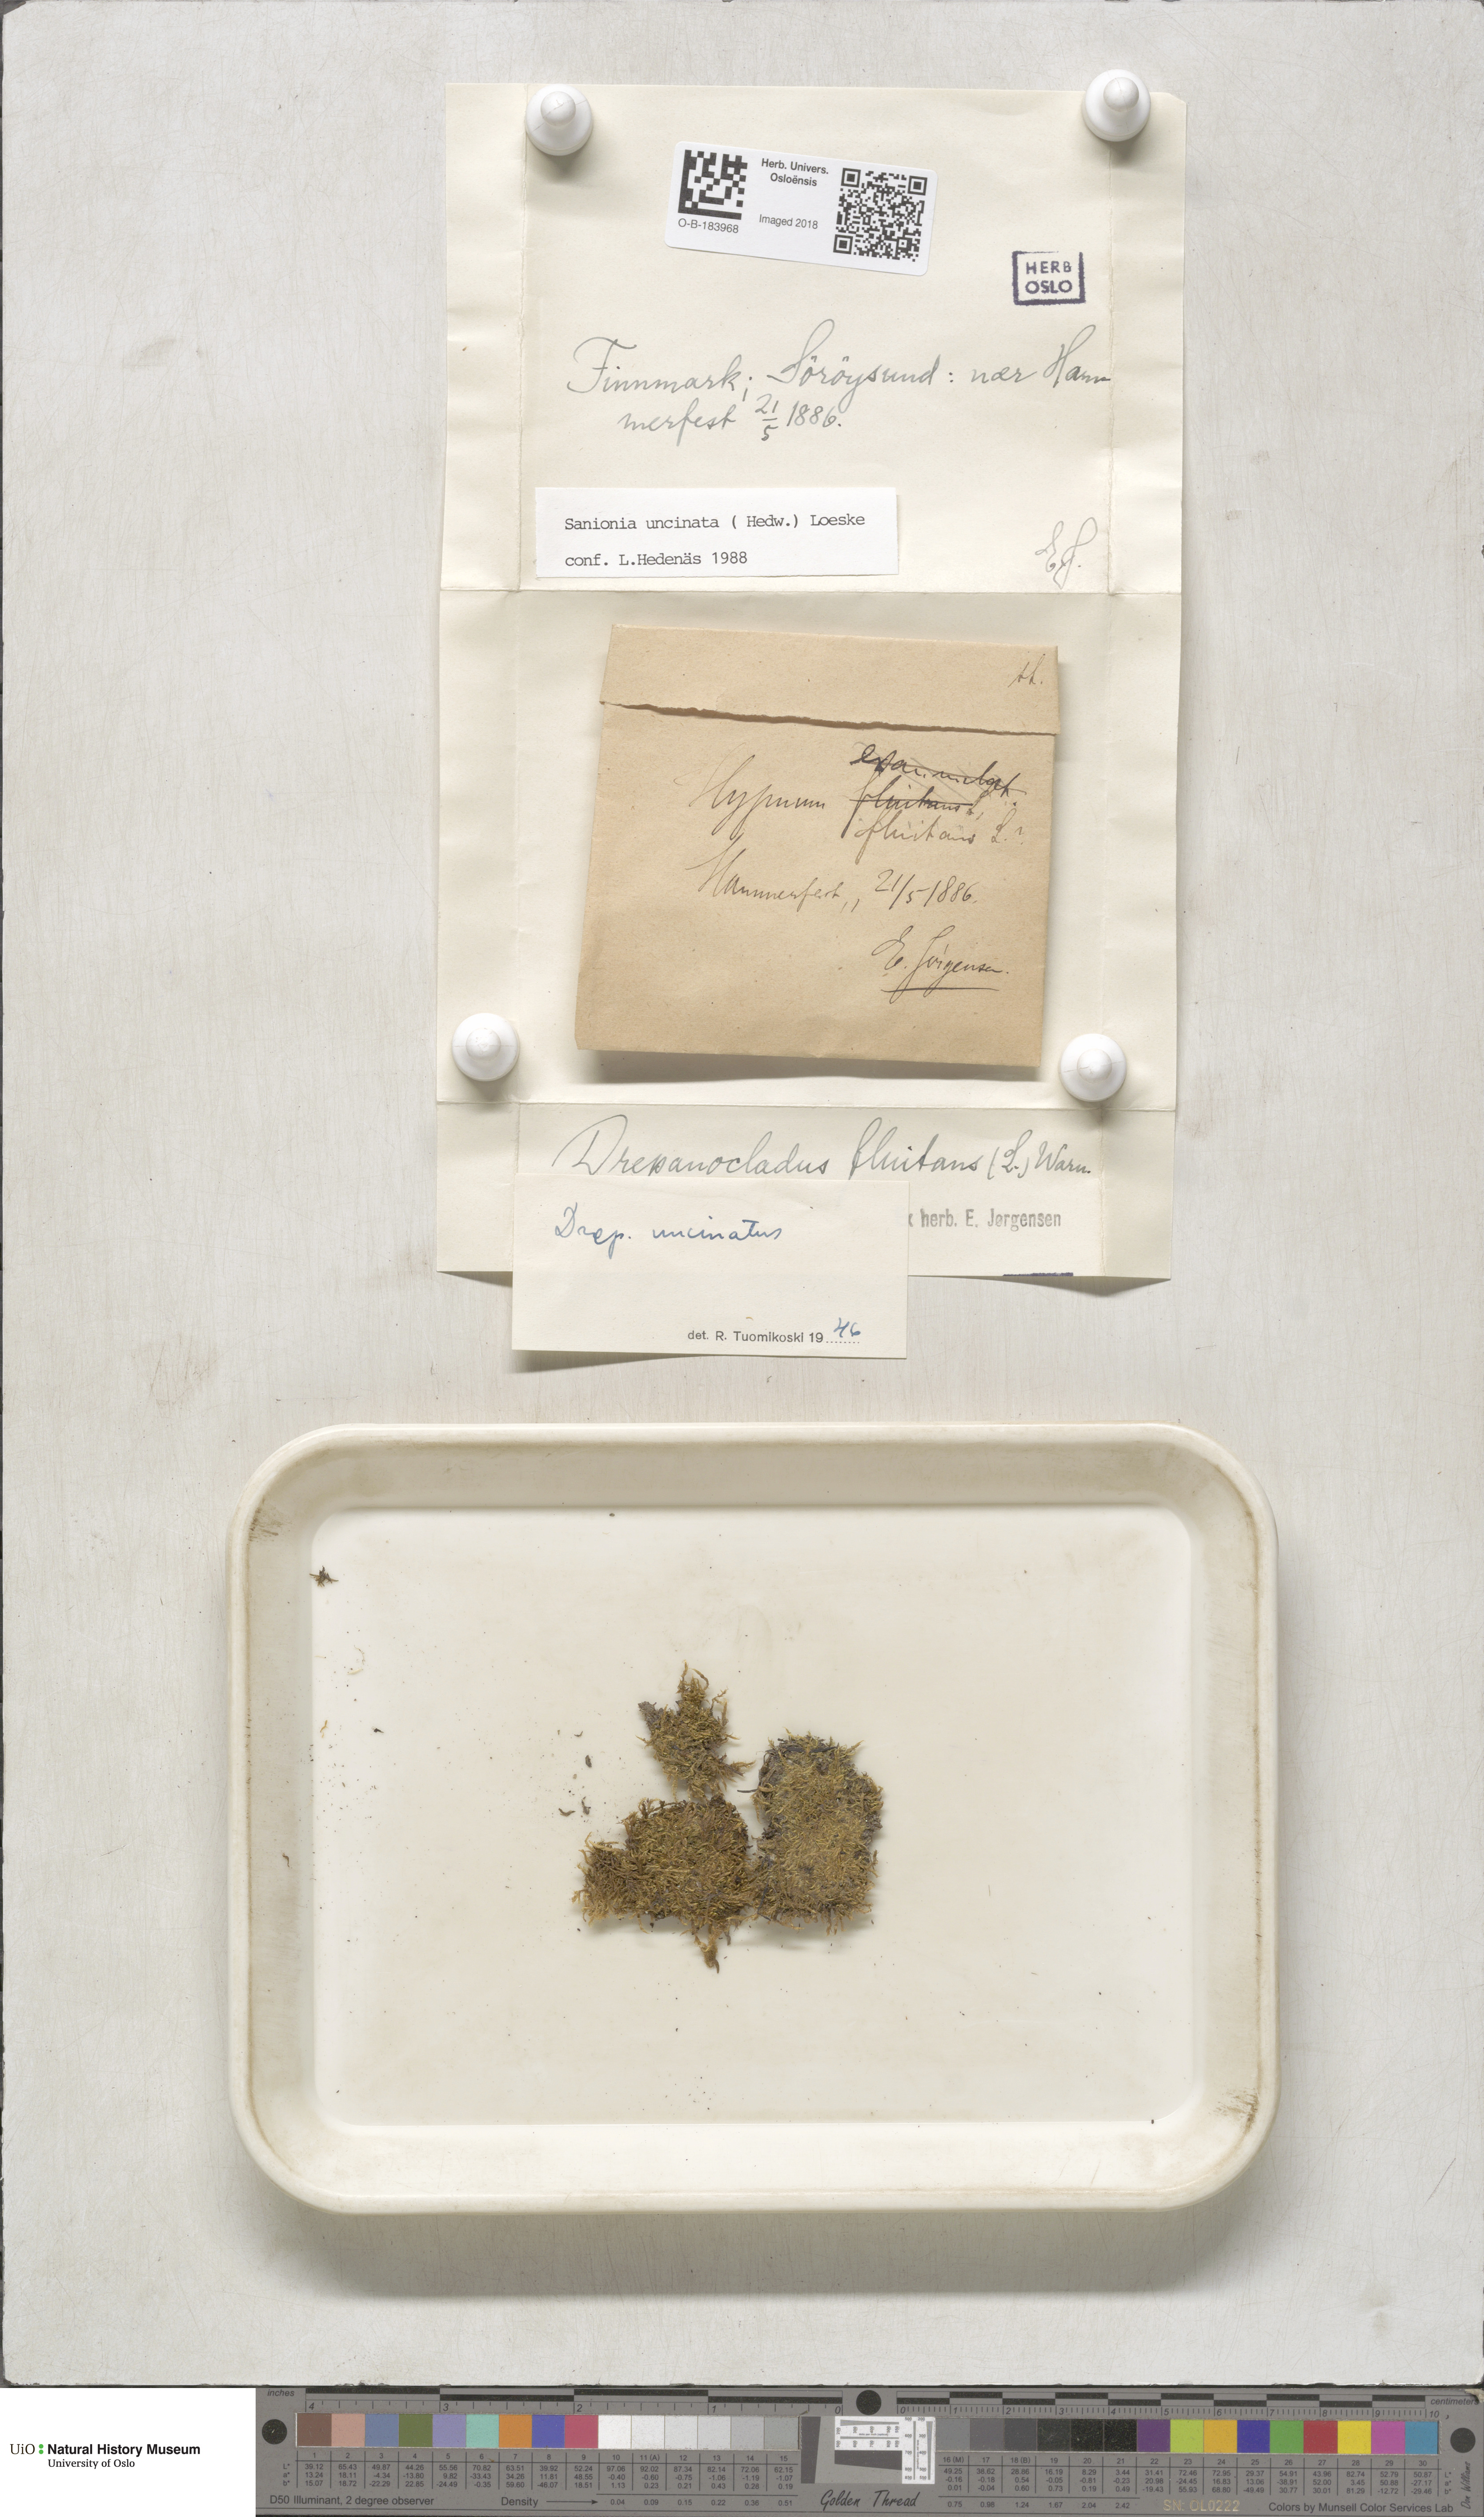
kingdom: Plantae
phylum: Bryophyta
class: Bryopsida
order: Hypnales
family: Scorpidiaceae
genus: Sanionia
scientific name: Sanionia uncinata
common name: Sickle moss
